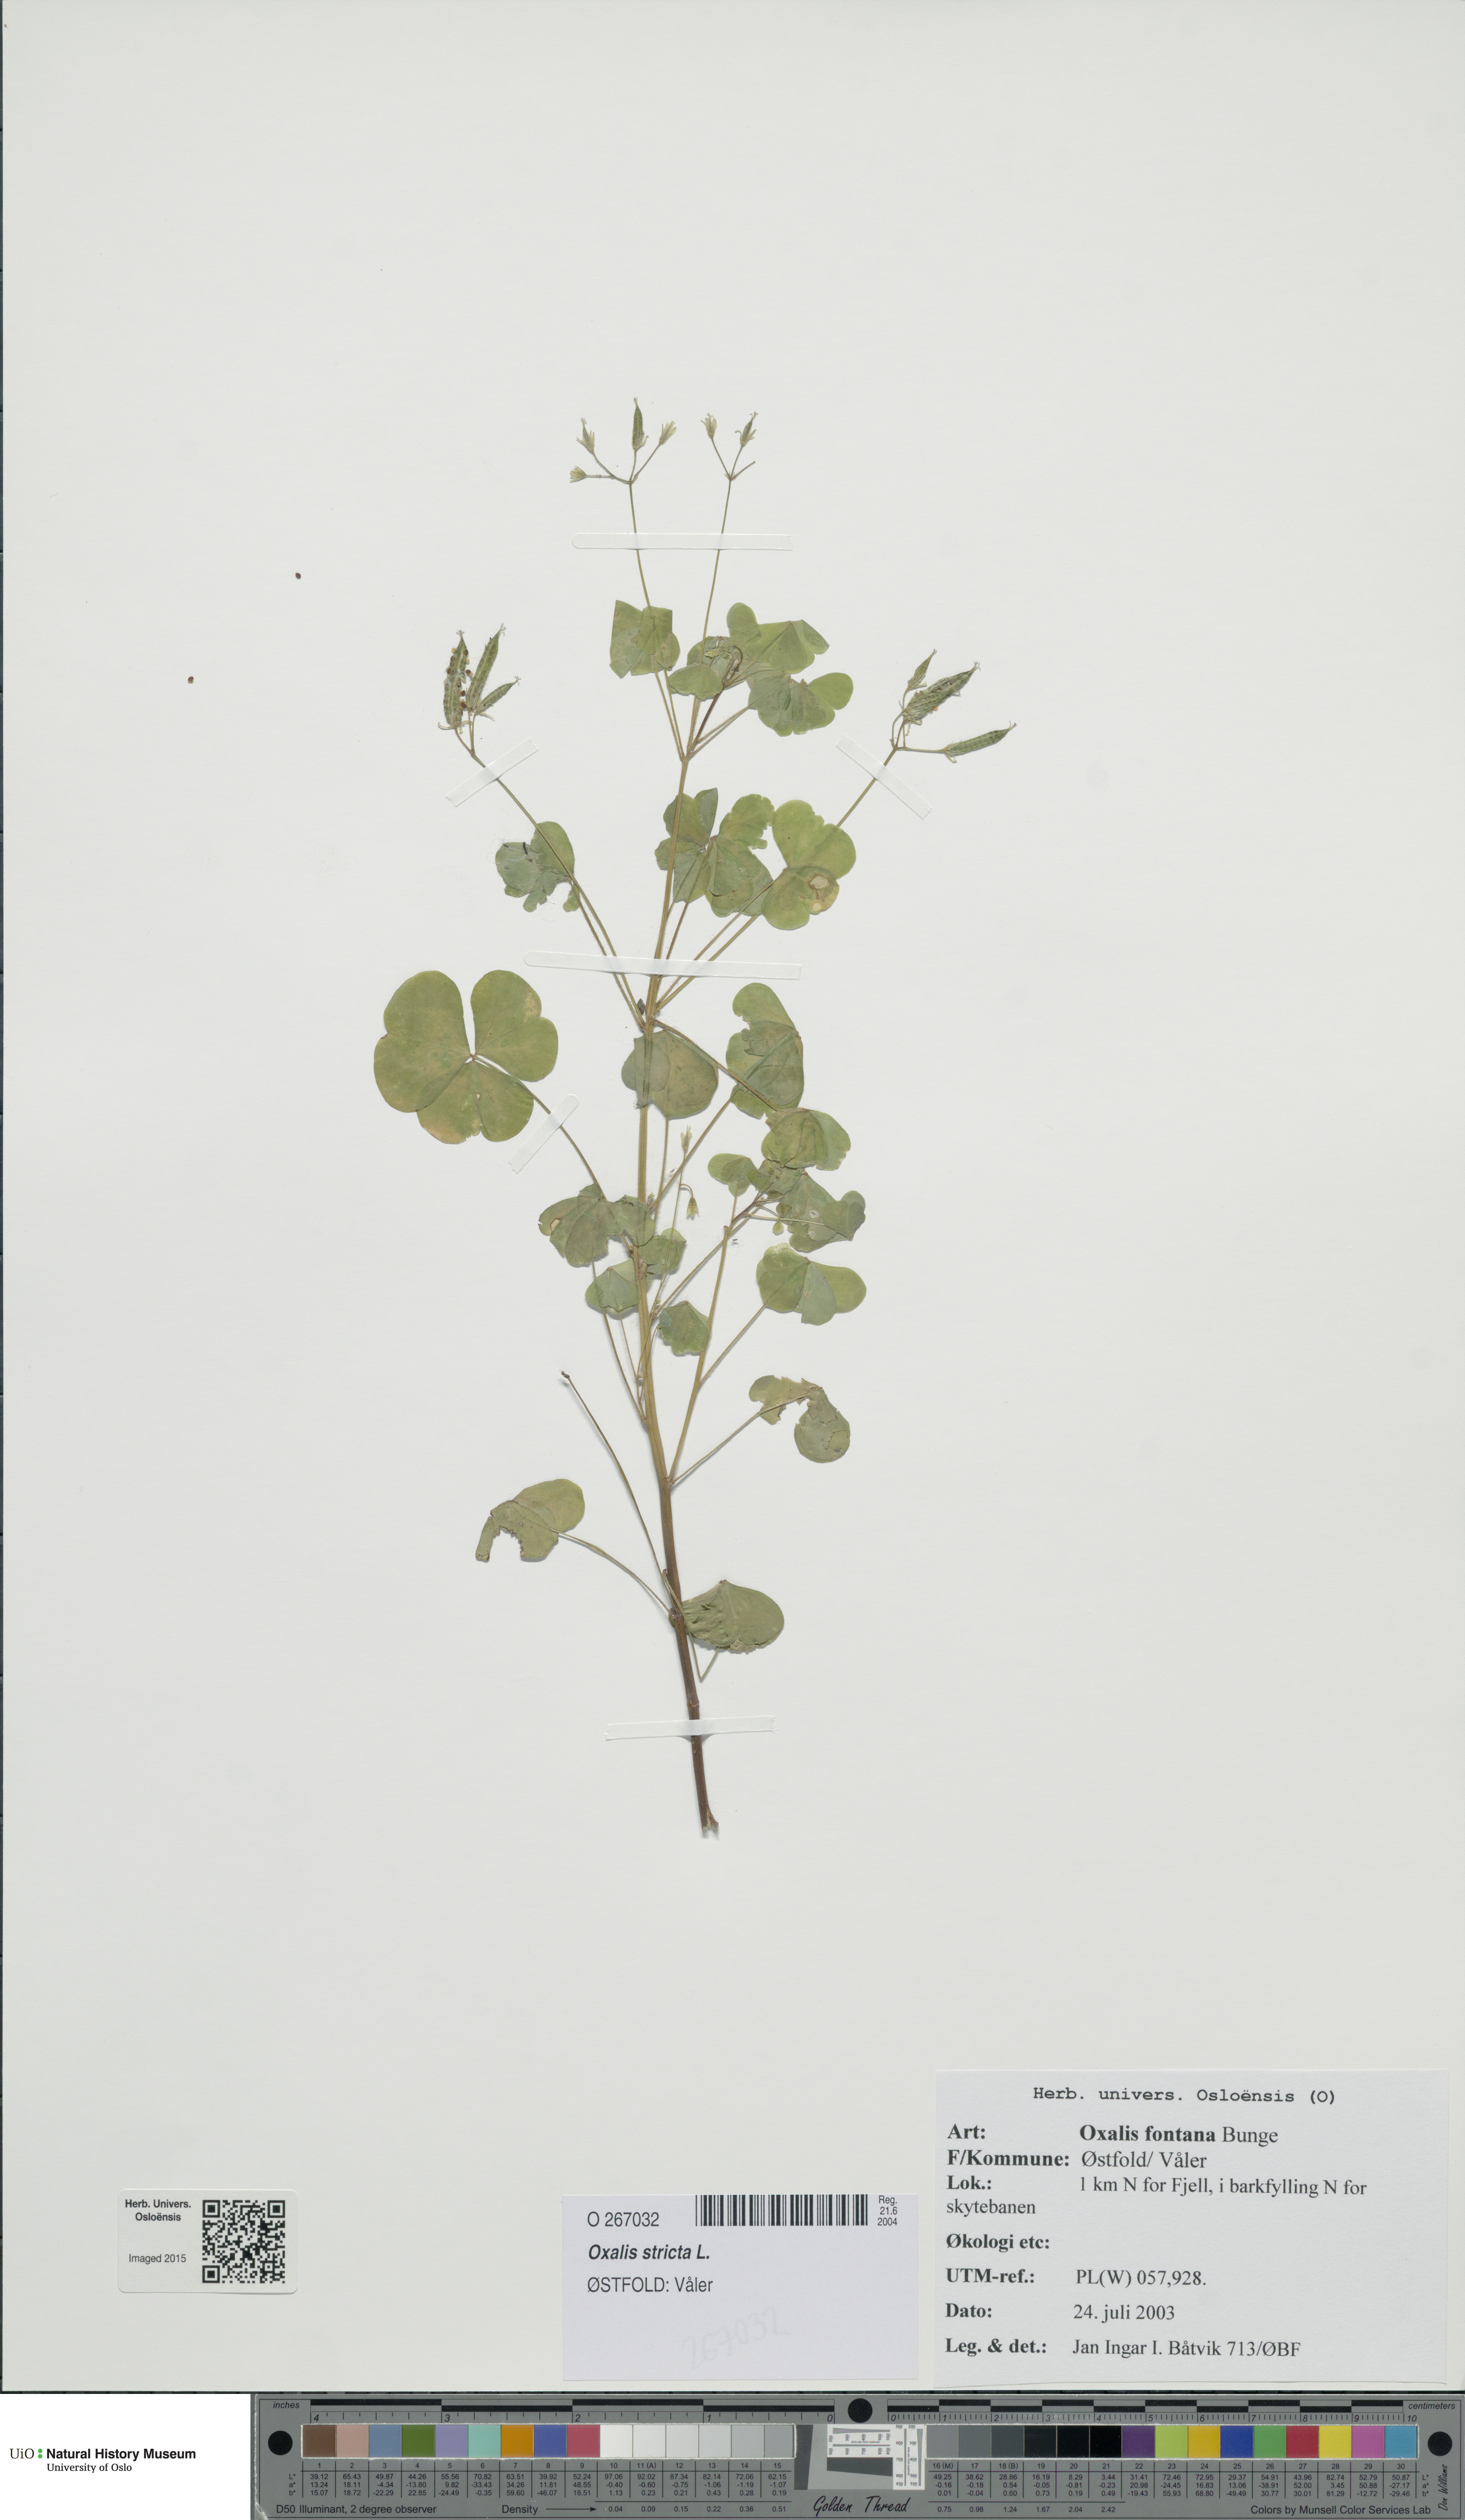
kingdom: Plantae
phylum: Tracheophyta
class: Magnoliopsida
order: Oxalidales
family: Oxalidaceae
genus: Oxalis
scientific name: Oxalis stricta
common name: Upright yellow-sorrel
